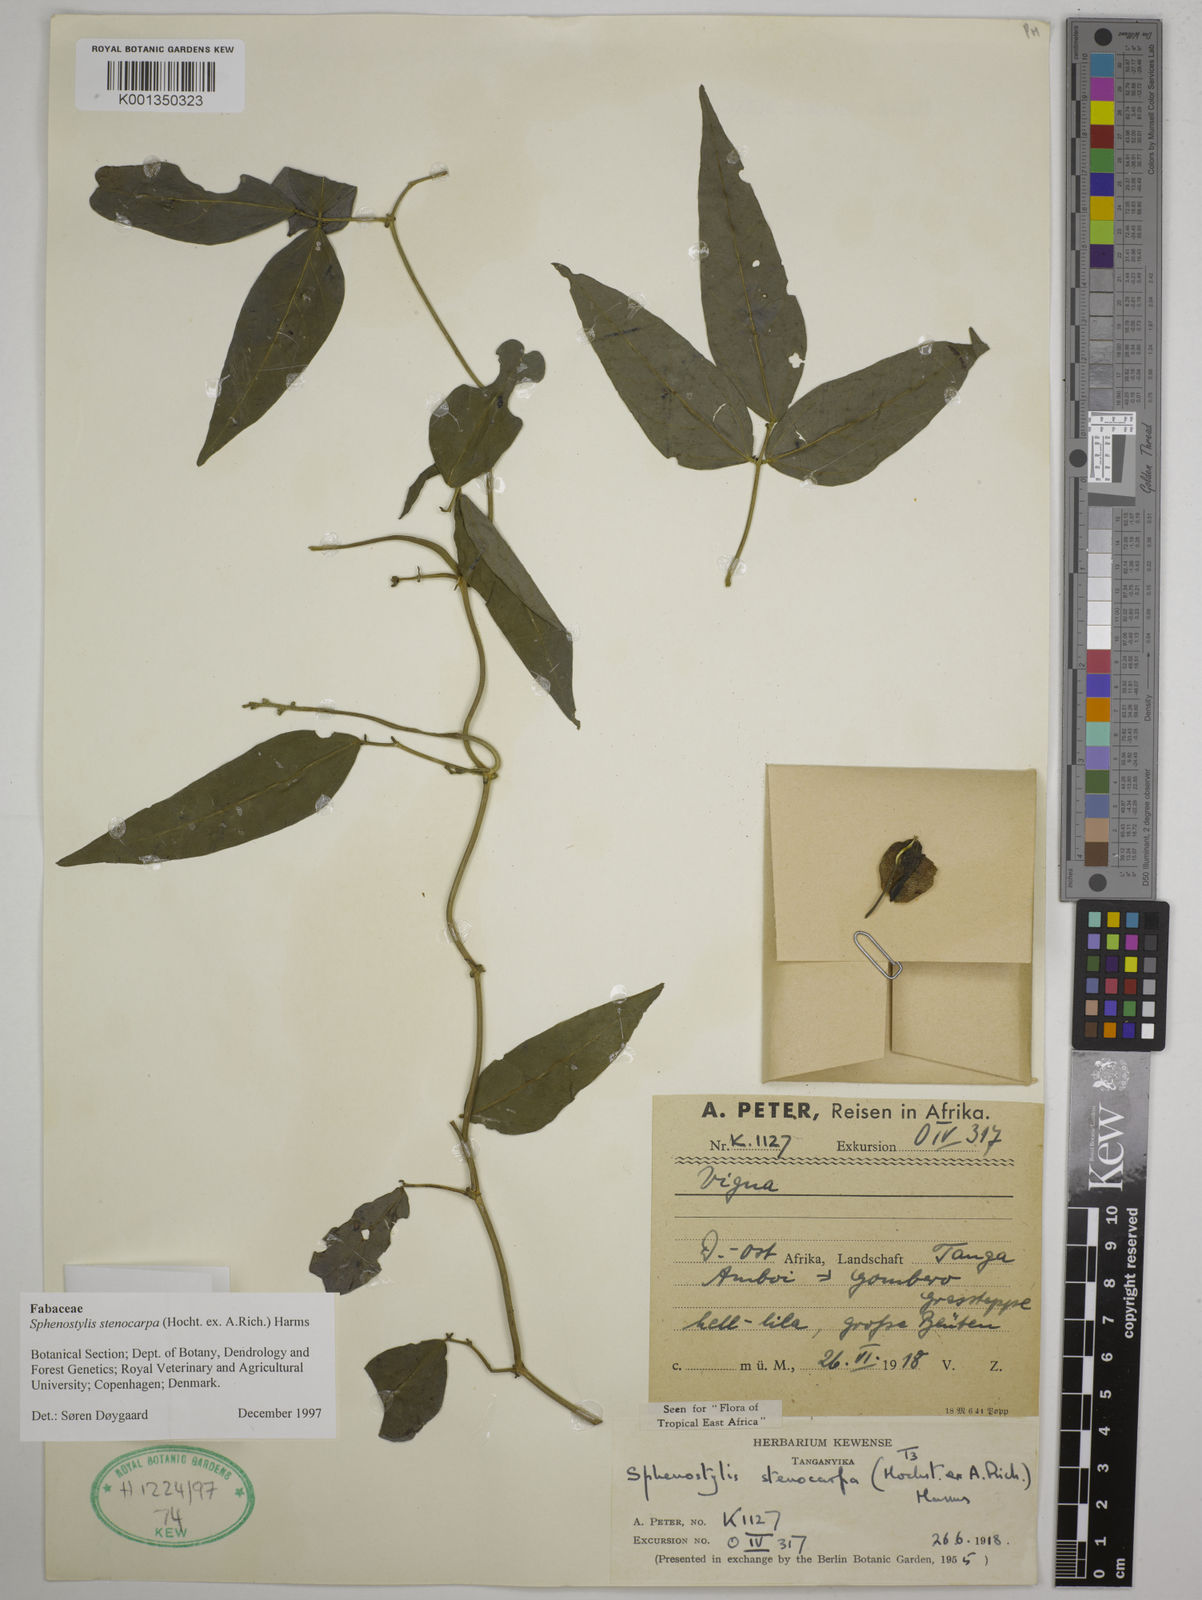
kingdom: Plantae
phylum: Tracheophyta
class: Magnoliopsida
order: Fabales
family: Fabaceae
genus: Sphenostylis
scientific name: Sphenostylis stenocarpa
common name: Yam-pea
